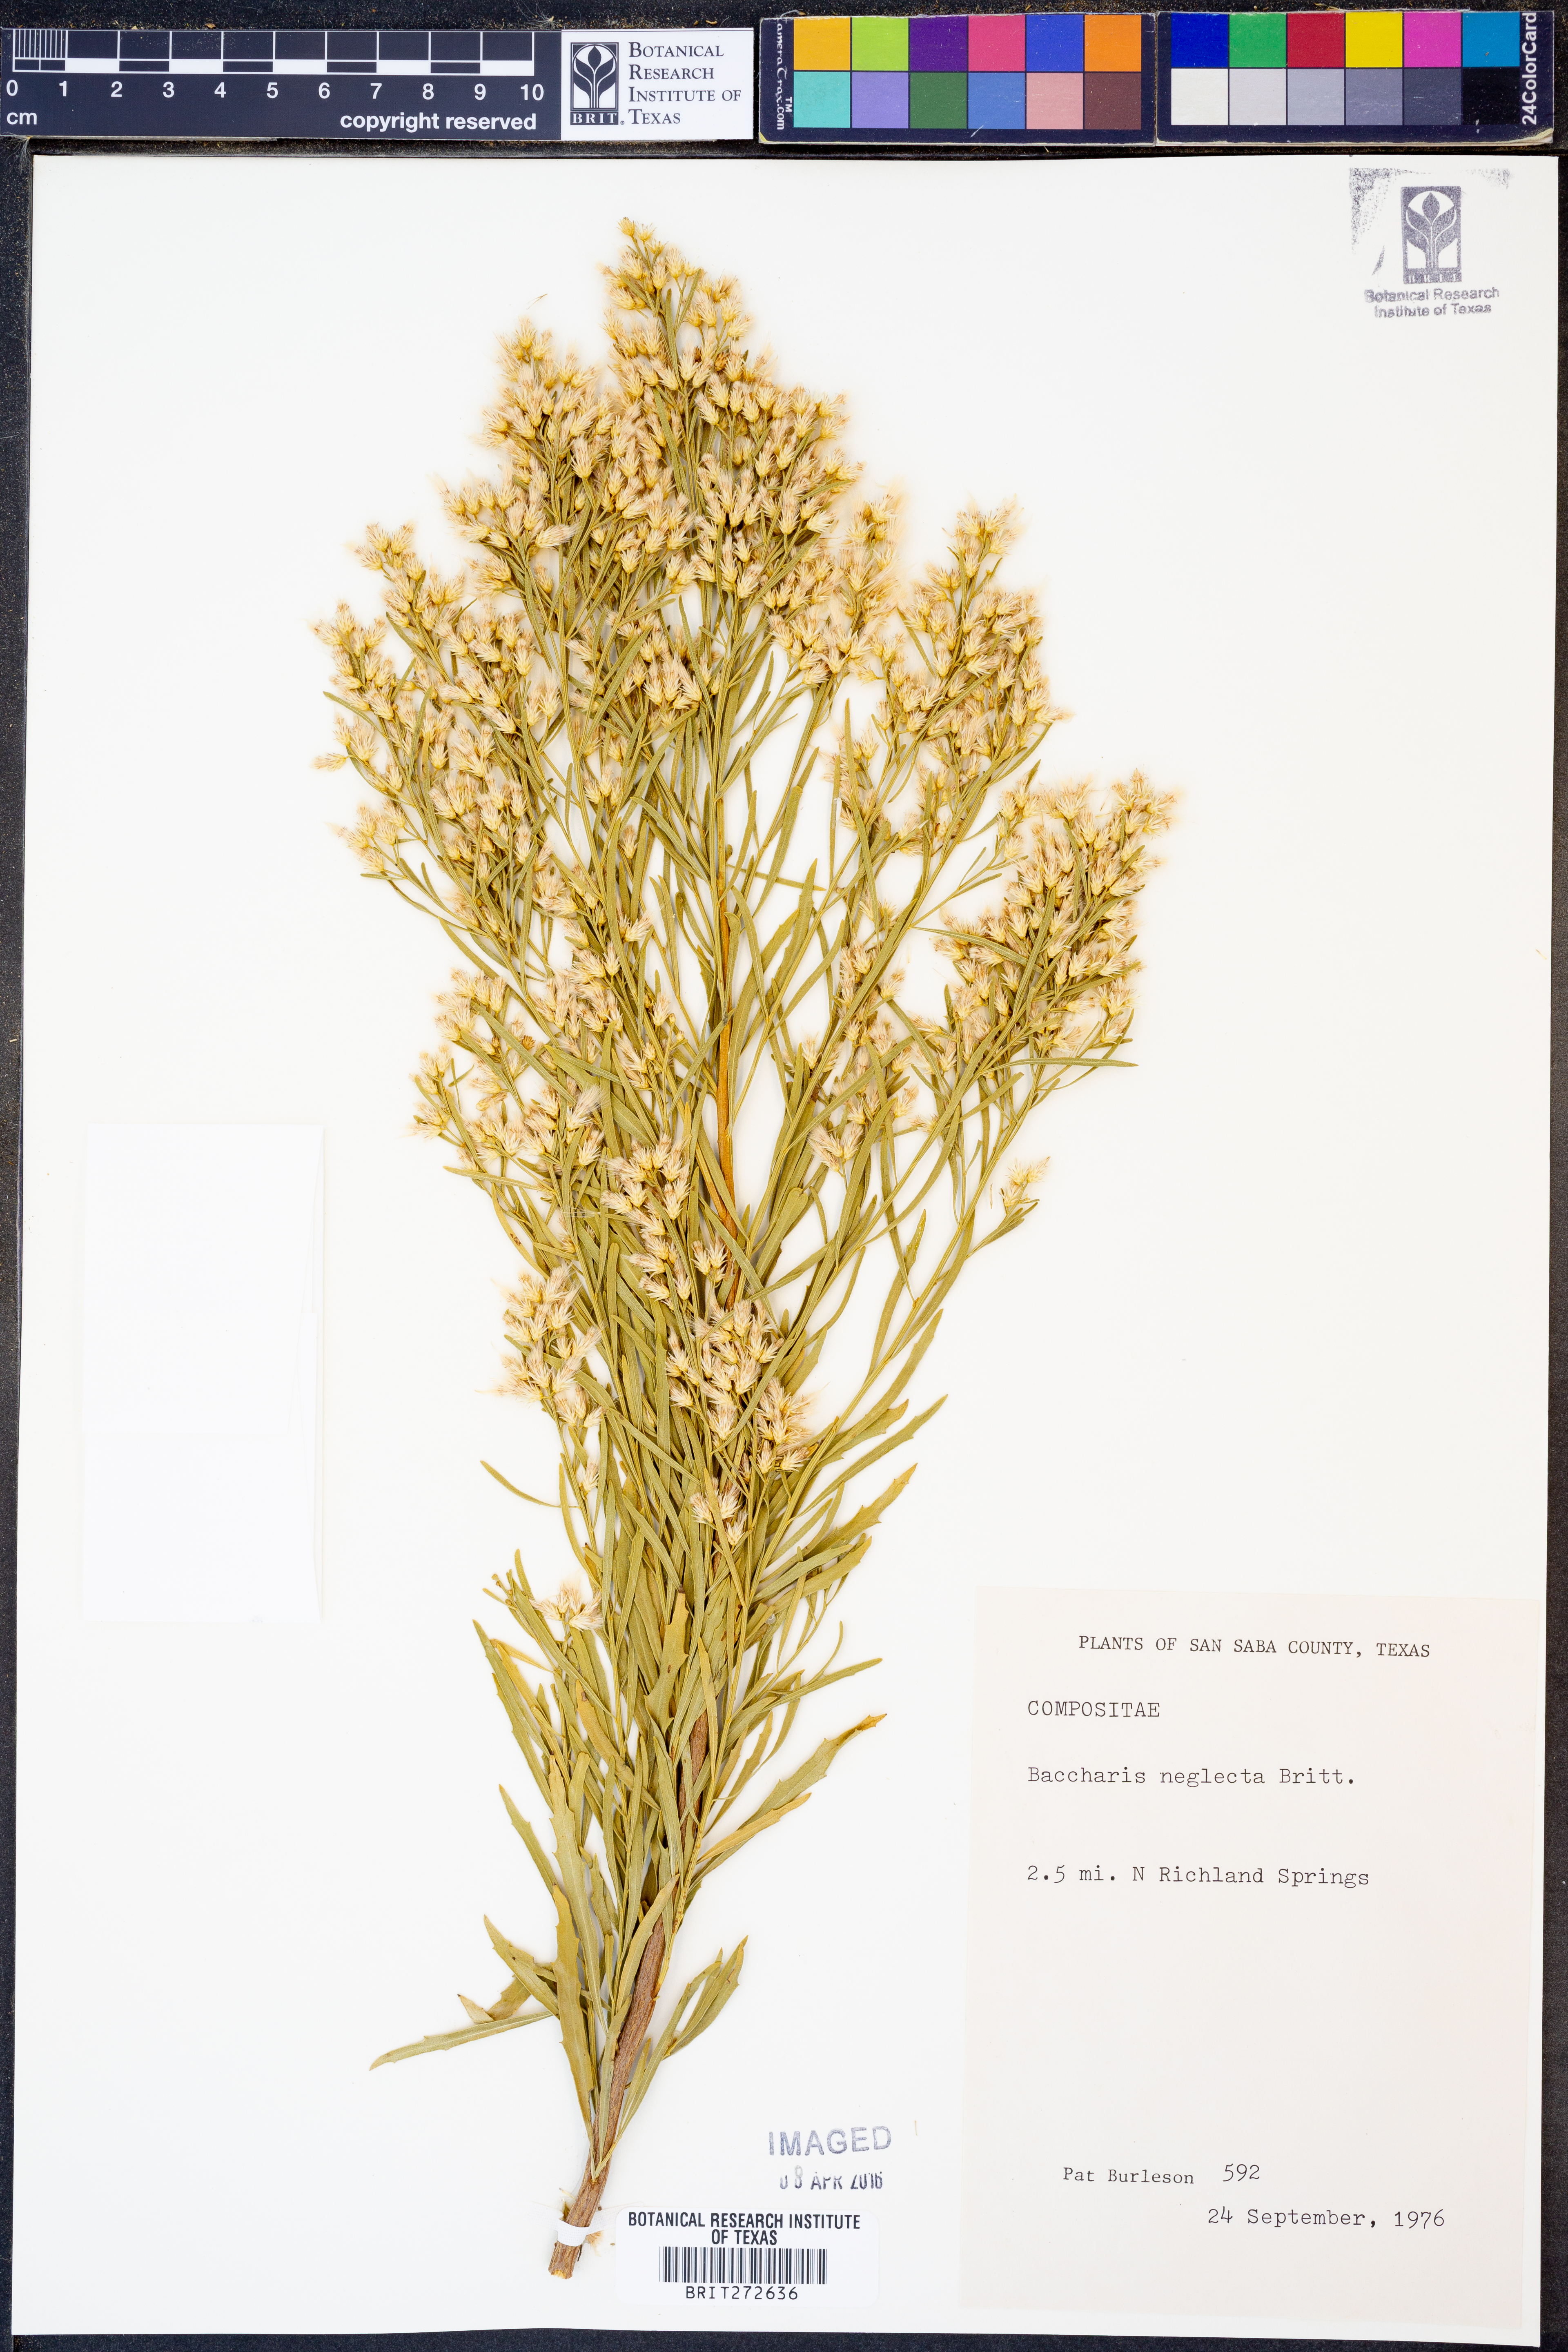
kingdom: Plantae
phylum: Tracheophyta
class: Magnoliopsida
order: Asterales
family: Asteraceae
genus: Baccharis
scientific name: Baccharis neglecta
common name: Roosevelt-weed
